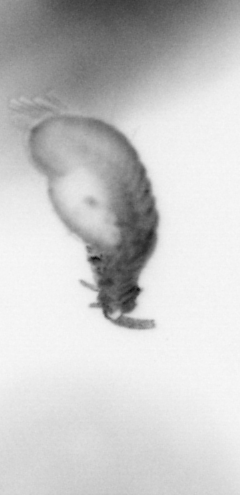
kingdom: Animalia
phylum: Annelida
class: Polychaeta
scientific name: Polychaeta
